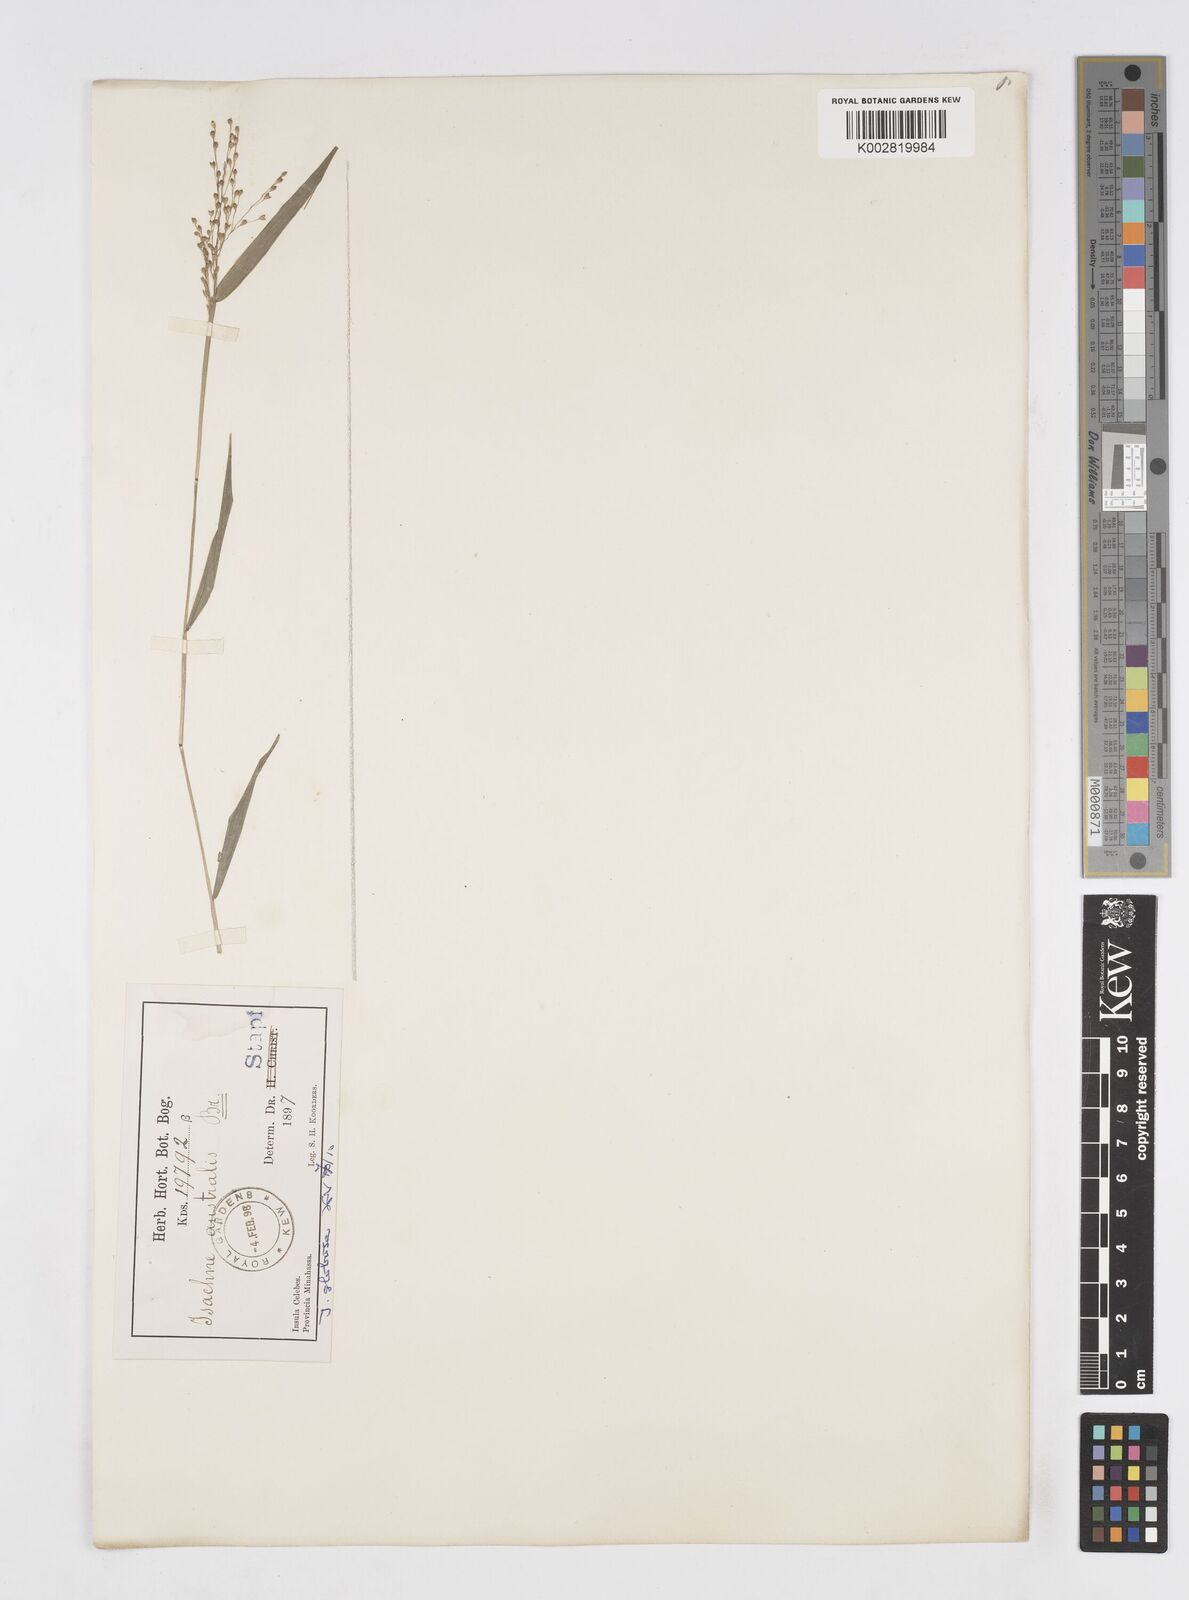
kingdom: Plantae
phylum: Tracheophyta
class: Liliopsida
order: Poales
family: Poaceae
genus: Isachne
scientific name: Isachne globosa
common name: Swamp millet
